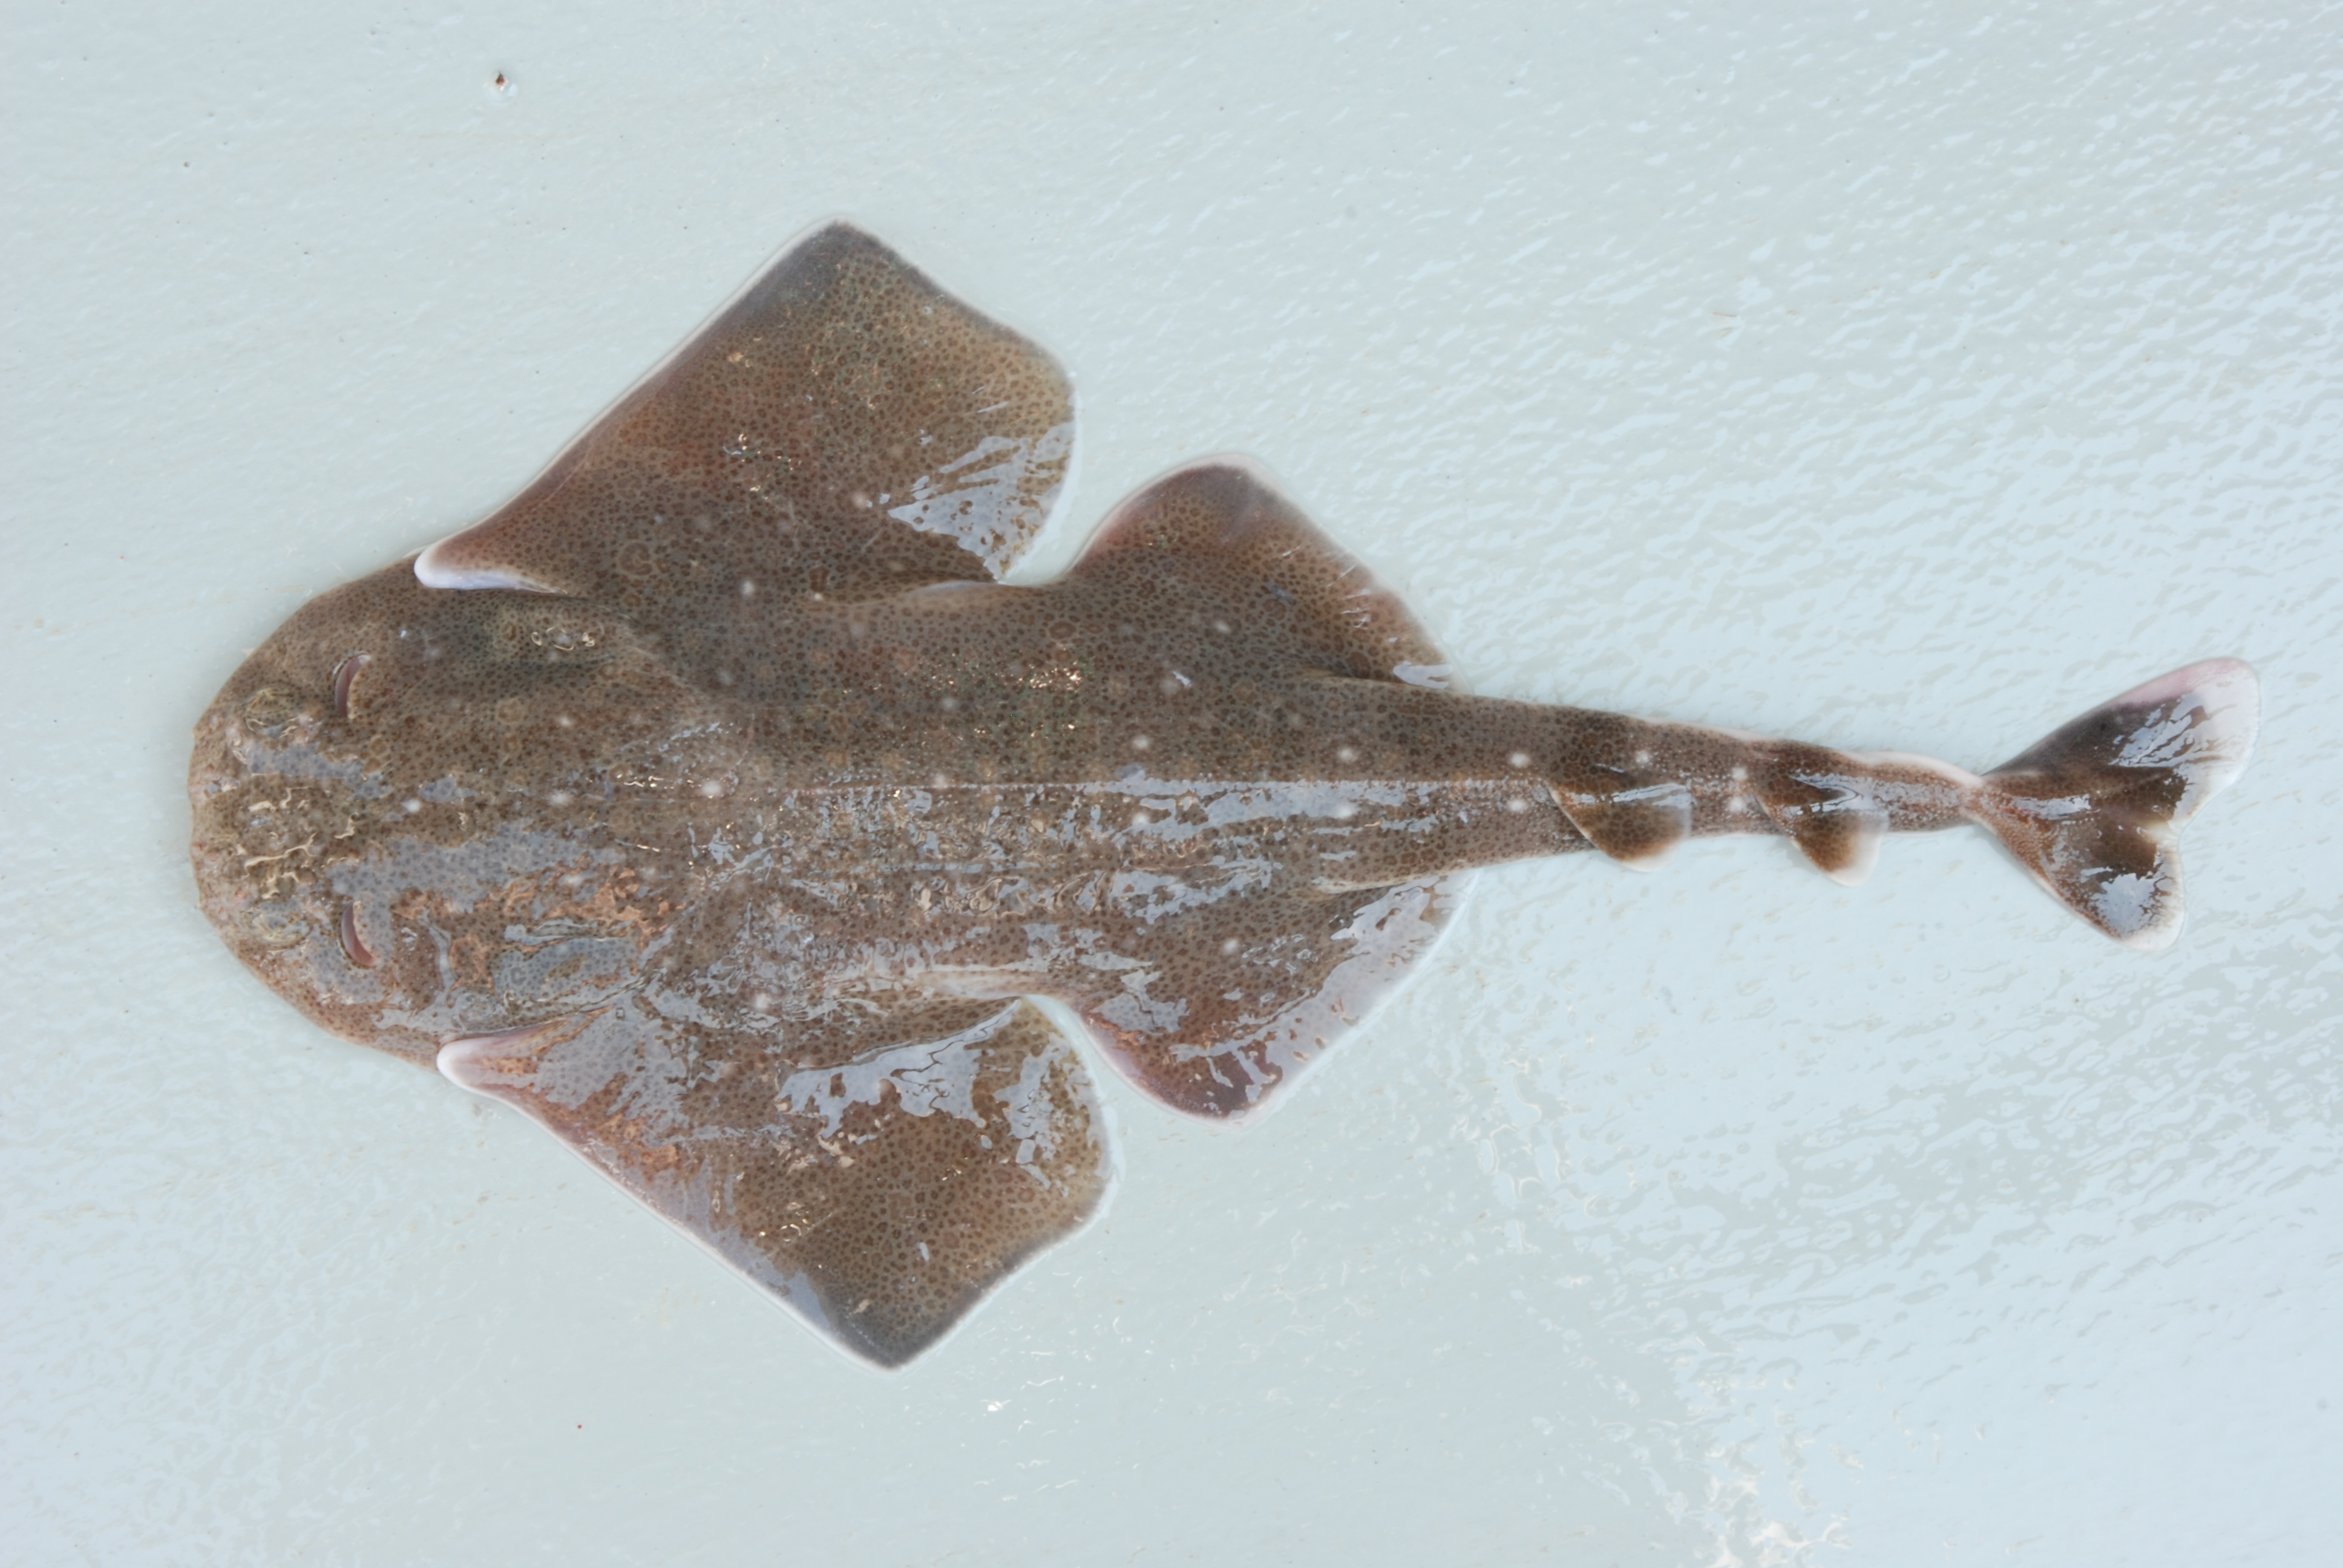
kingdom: Animalia
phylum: Chordata
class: Elasmobranchii
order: Squatiniformes
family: Squatinidae
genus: Squatina
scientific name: Squatina africana
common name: African angelshark
